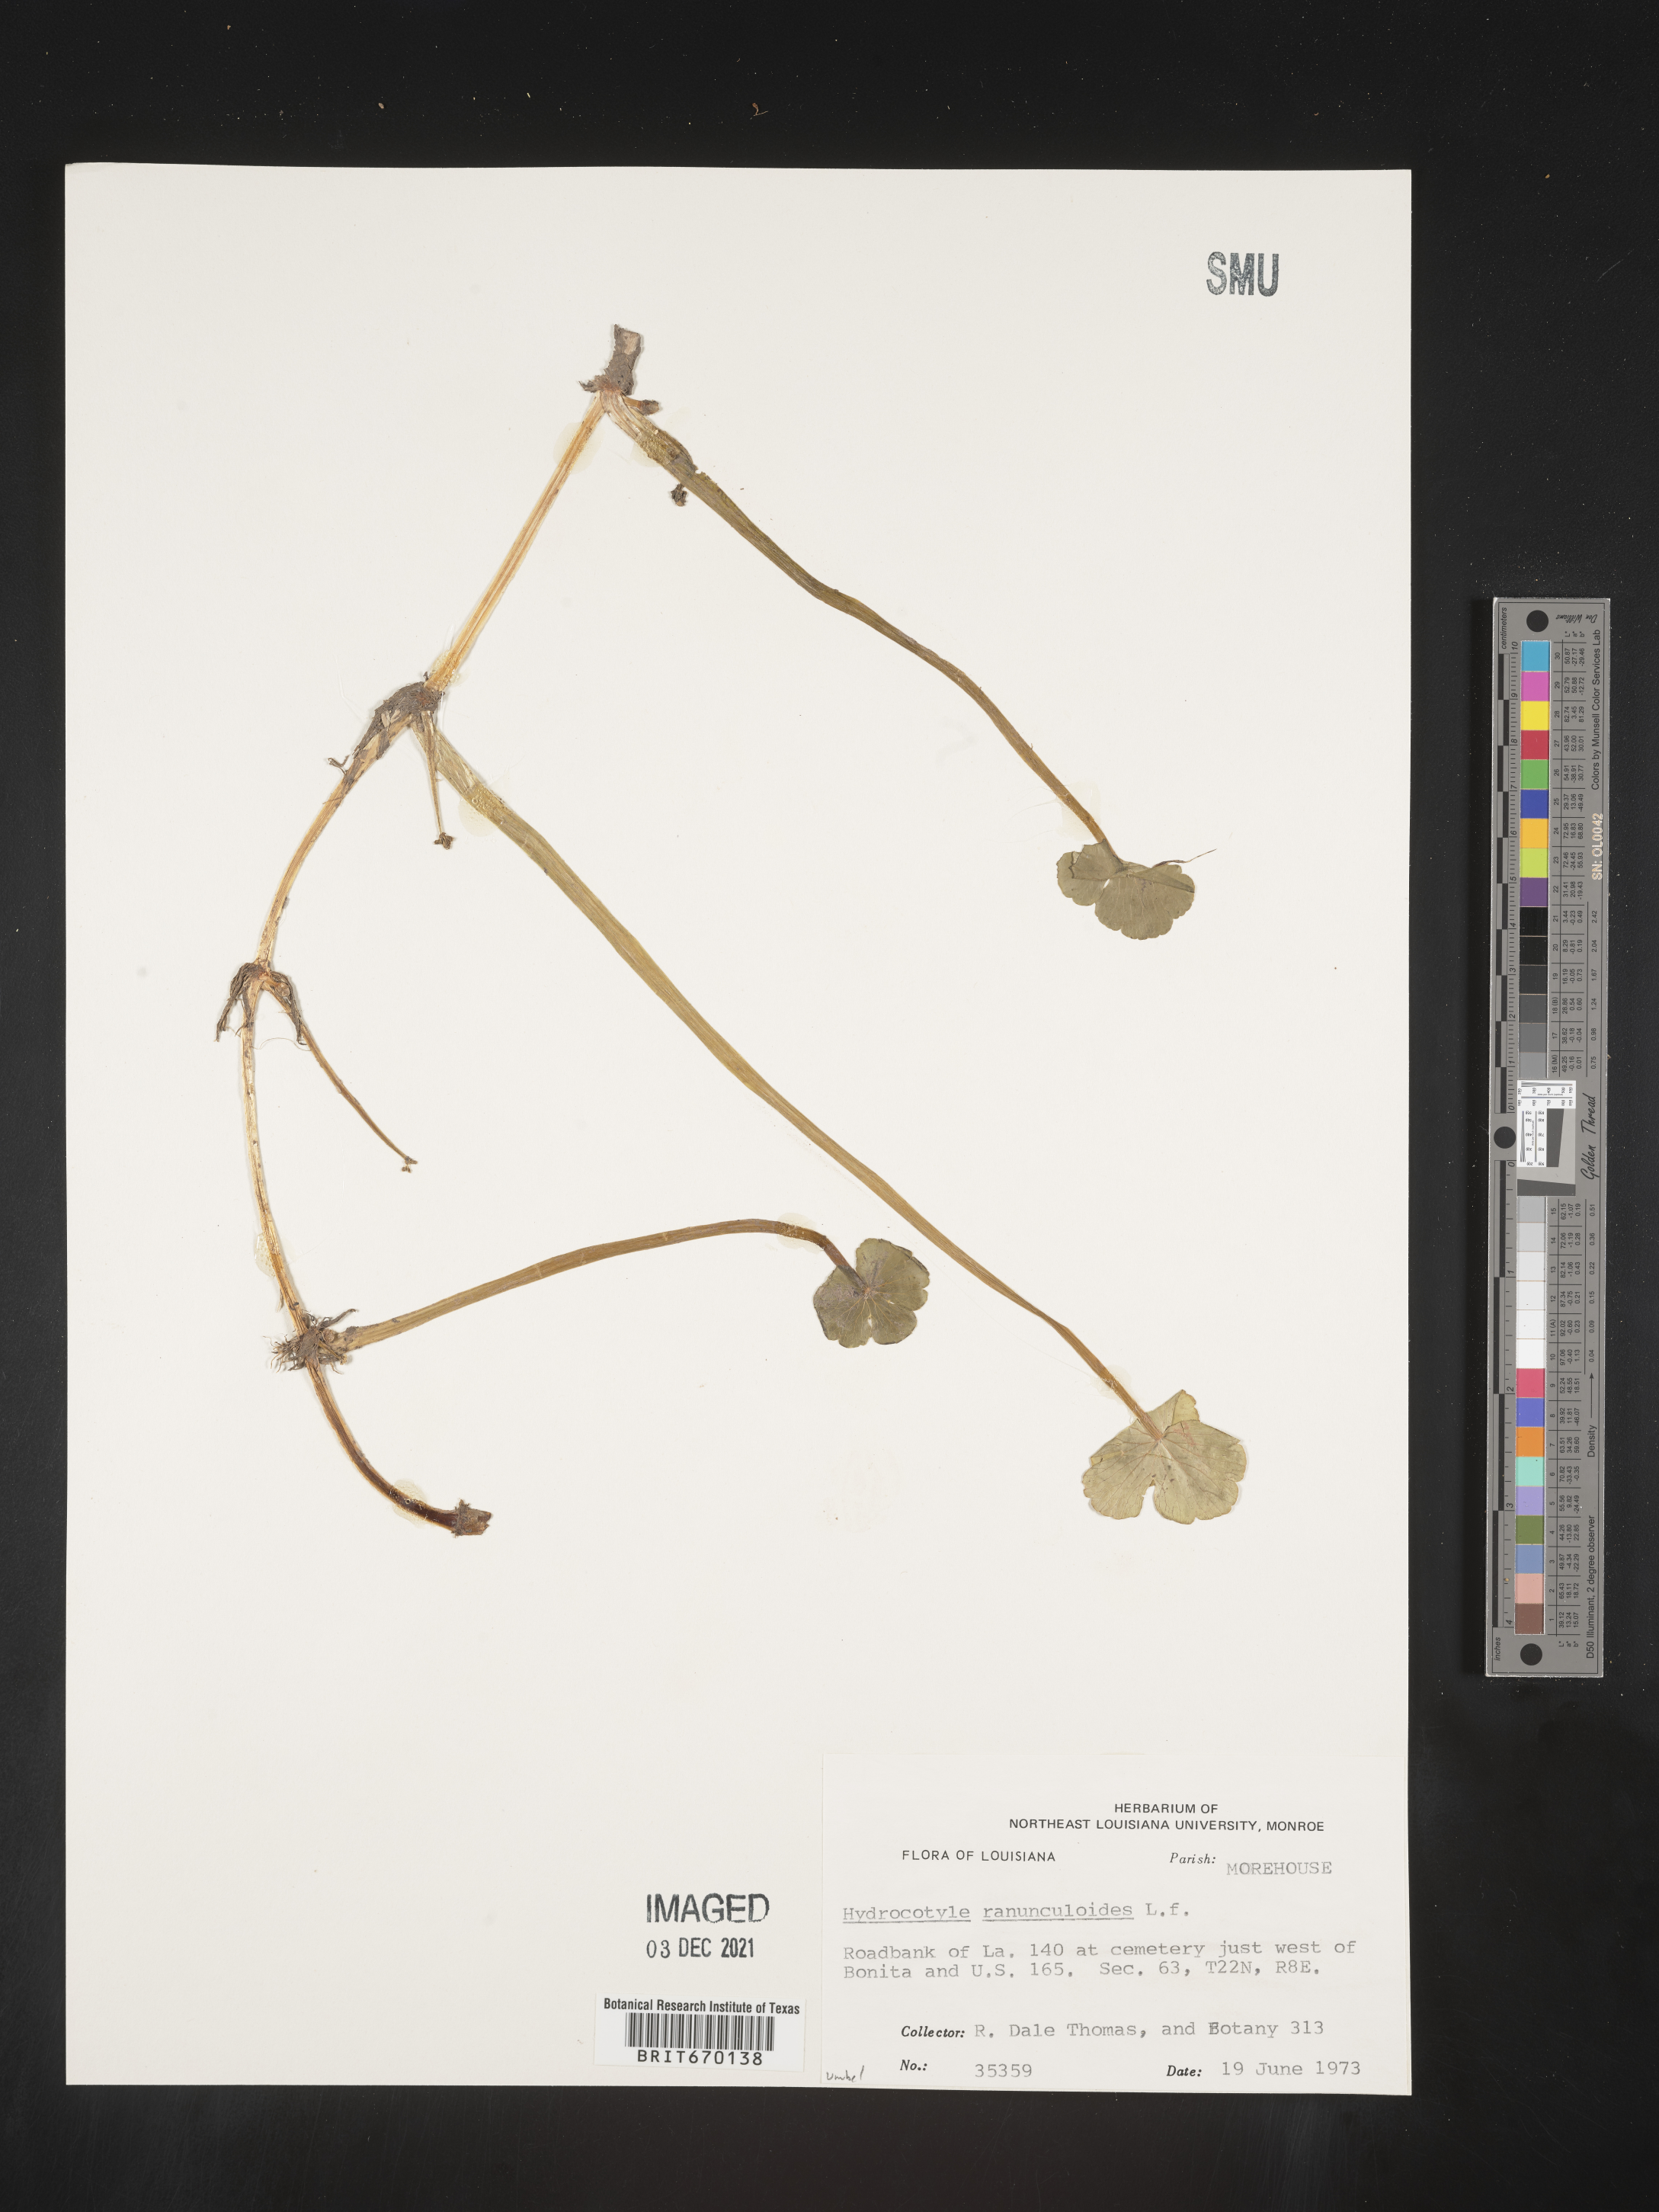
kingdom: Plantae
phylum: Tracheophyta
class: Magnoliopsida
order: Apiales
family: Araliaceae
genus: Hydrocotyle
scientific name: Hydrocotyle ranunculoides
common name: Floating pennywort
